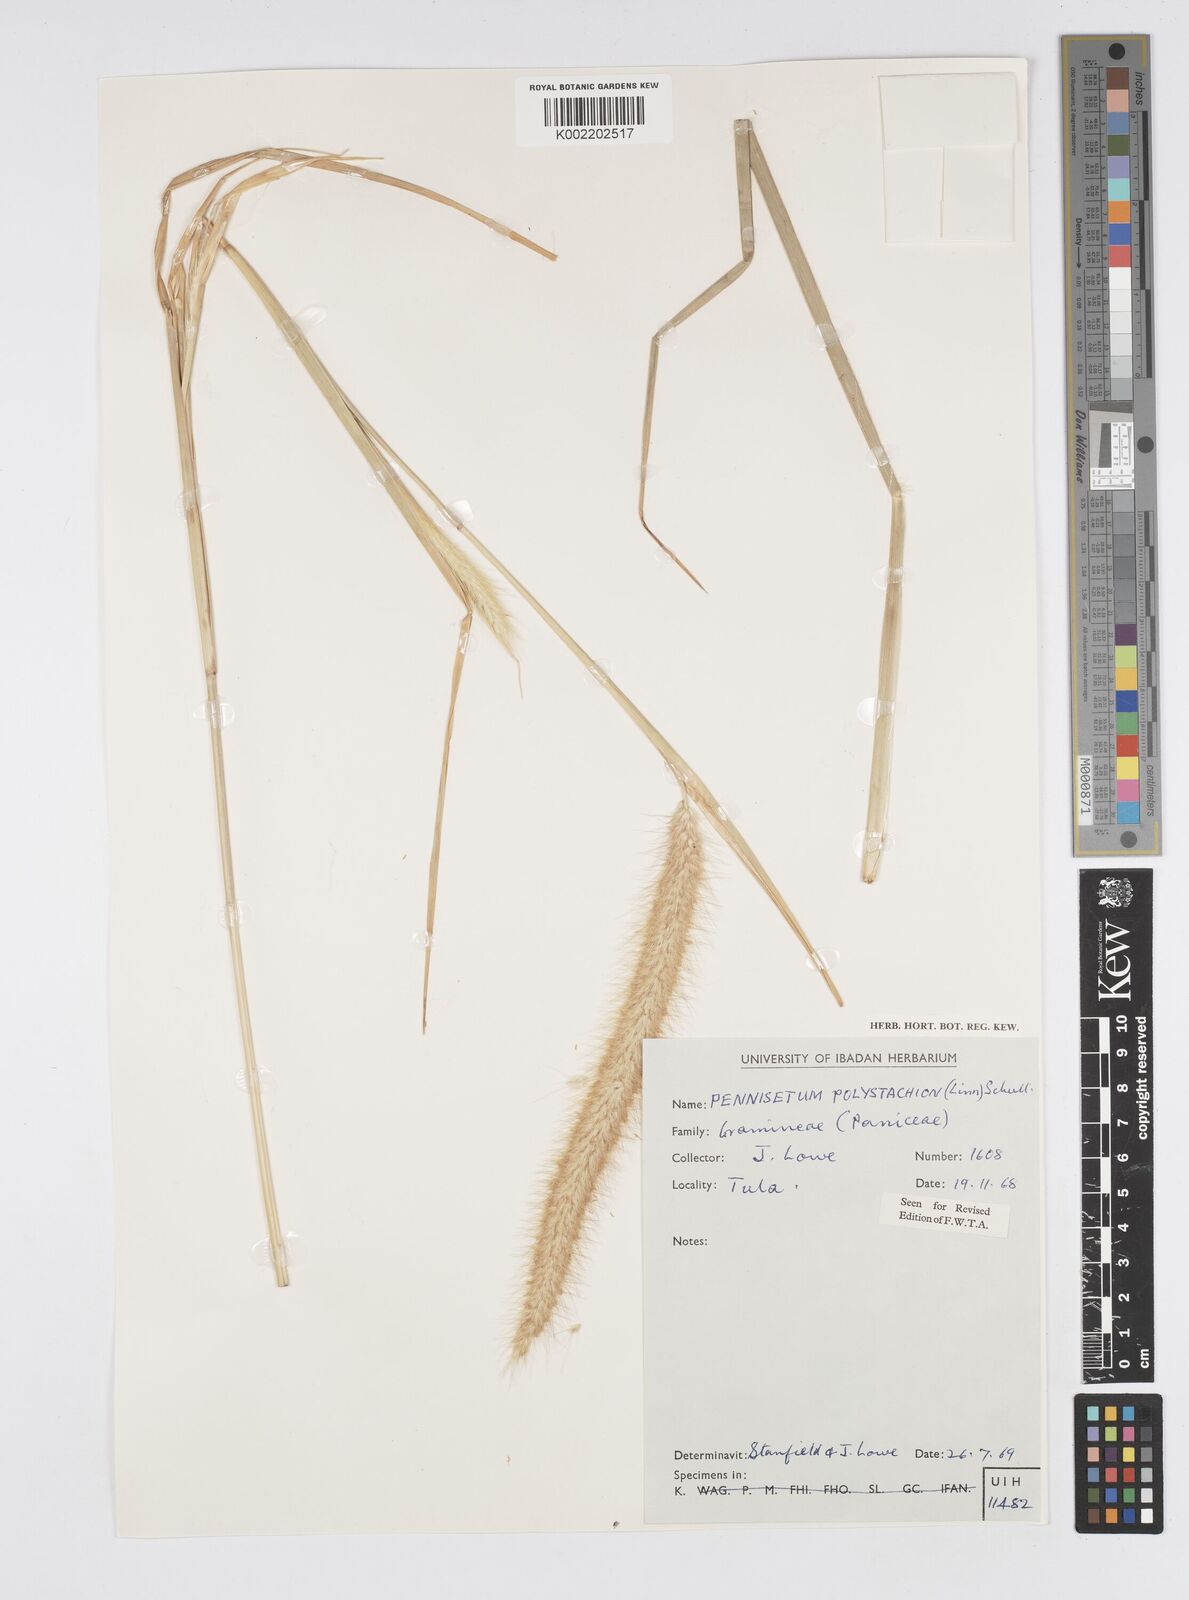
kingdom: Plantae
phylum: Tracheophyta
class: Liliopsida
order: Poales
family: Poaceae
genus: Cenchrus
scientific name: Cenchrus Pennisetum spec
